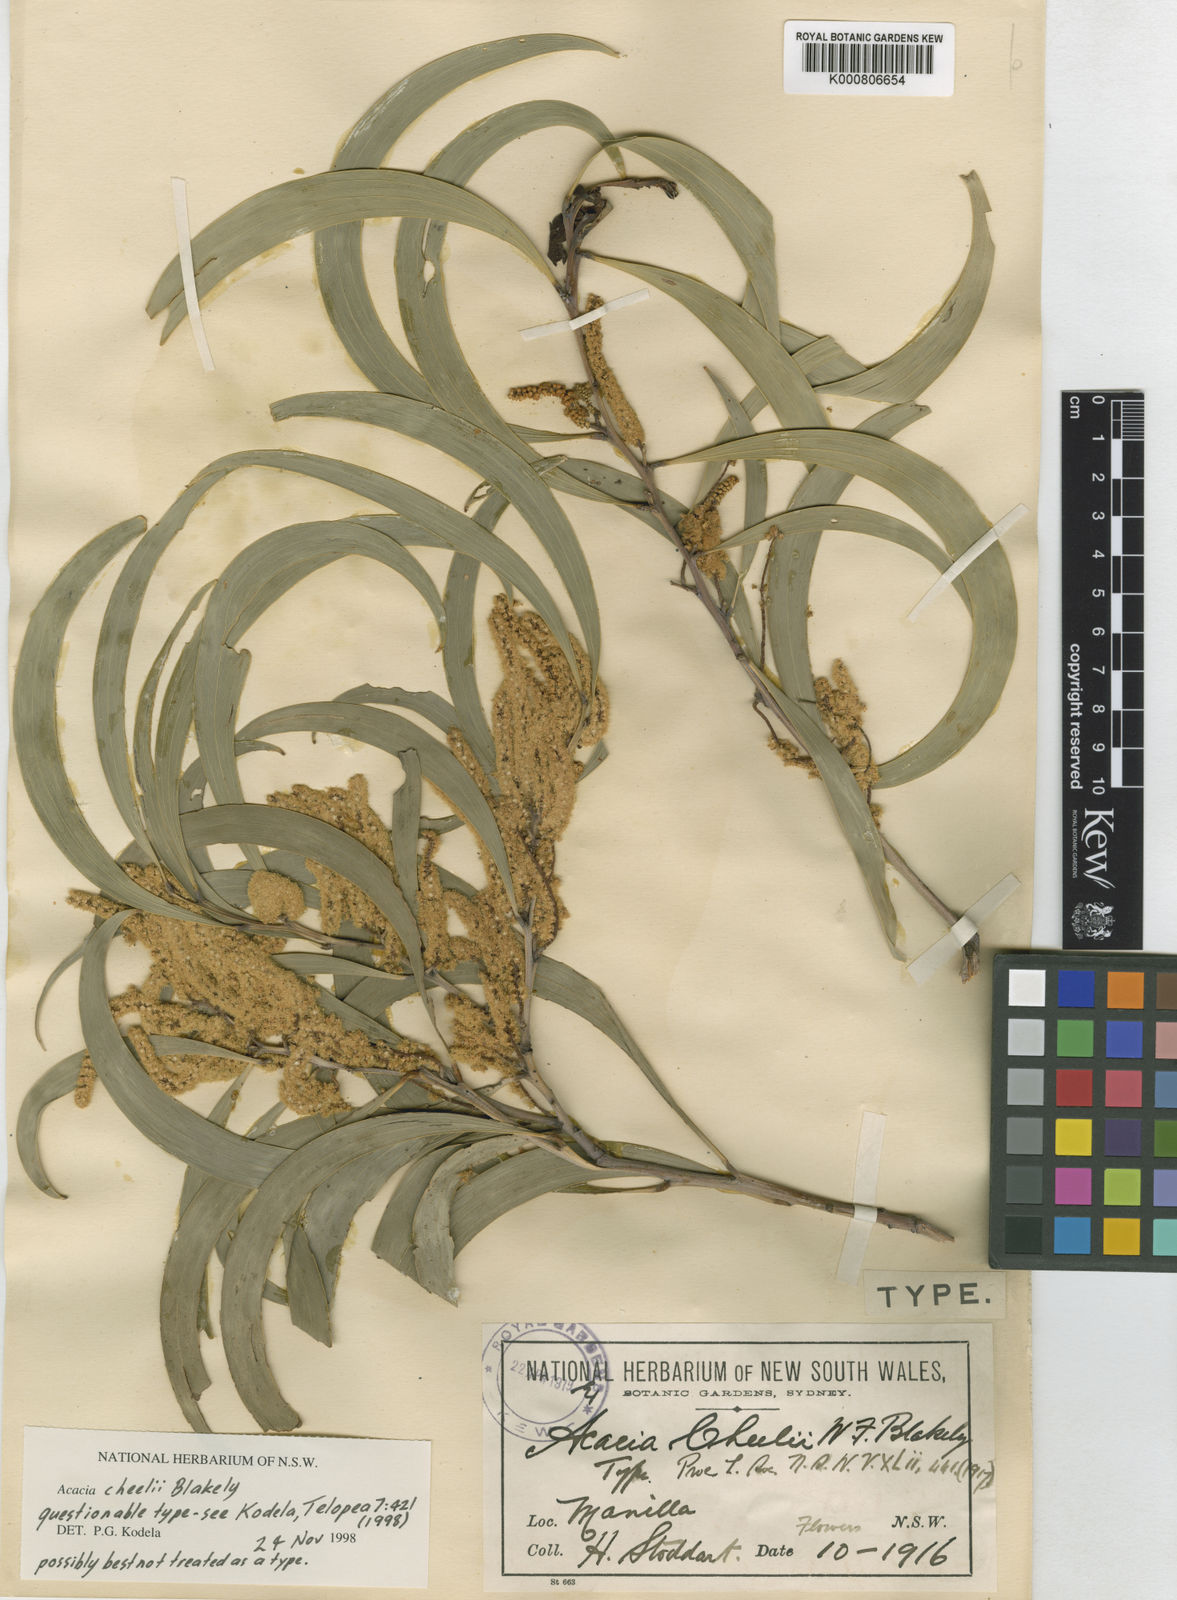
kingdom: Plantae
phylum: Tracheophyta
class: Magnoliopsida
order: Fabales
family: Fabaceae
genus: Acacia
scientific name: Acacia cheelii
